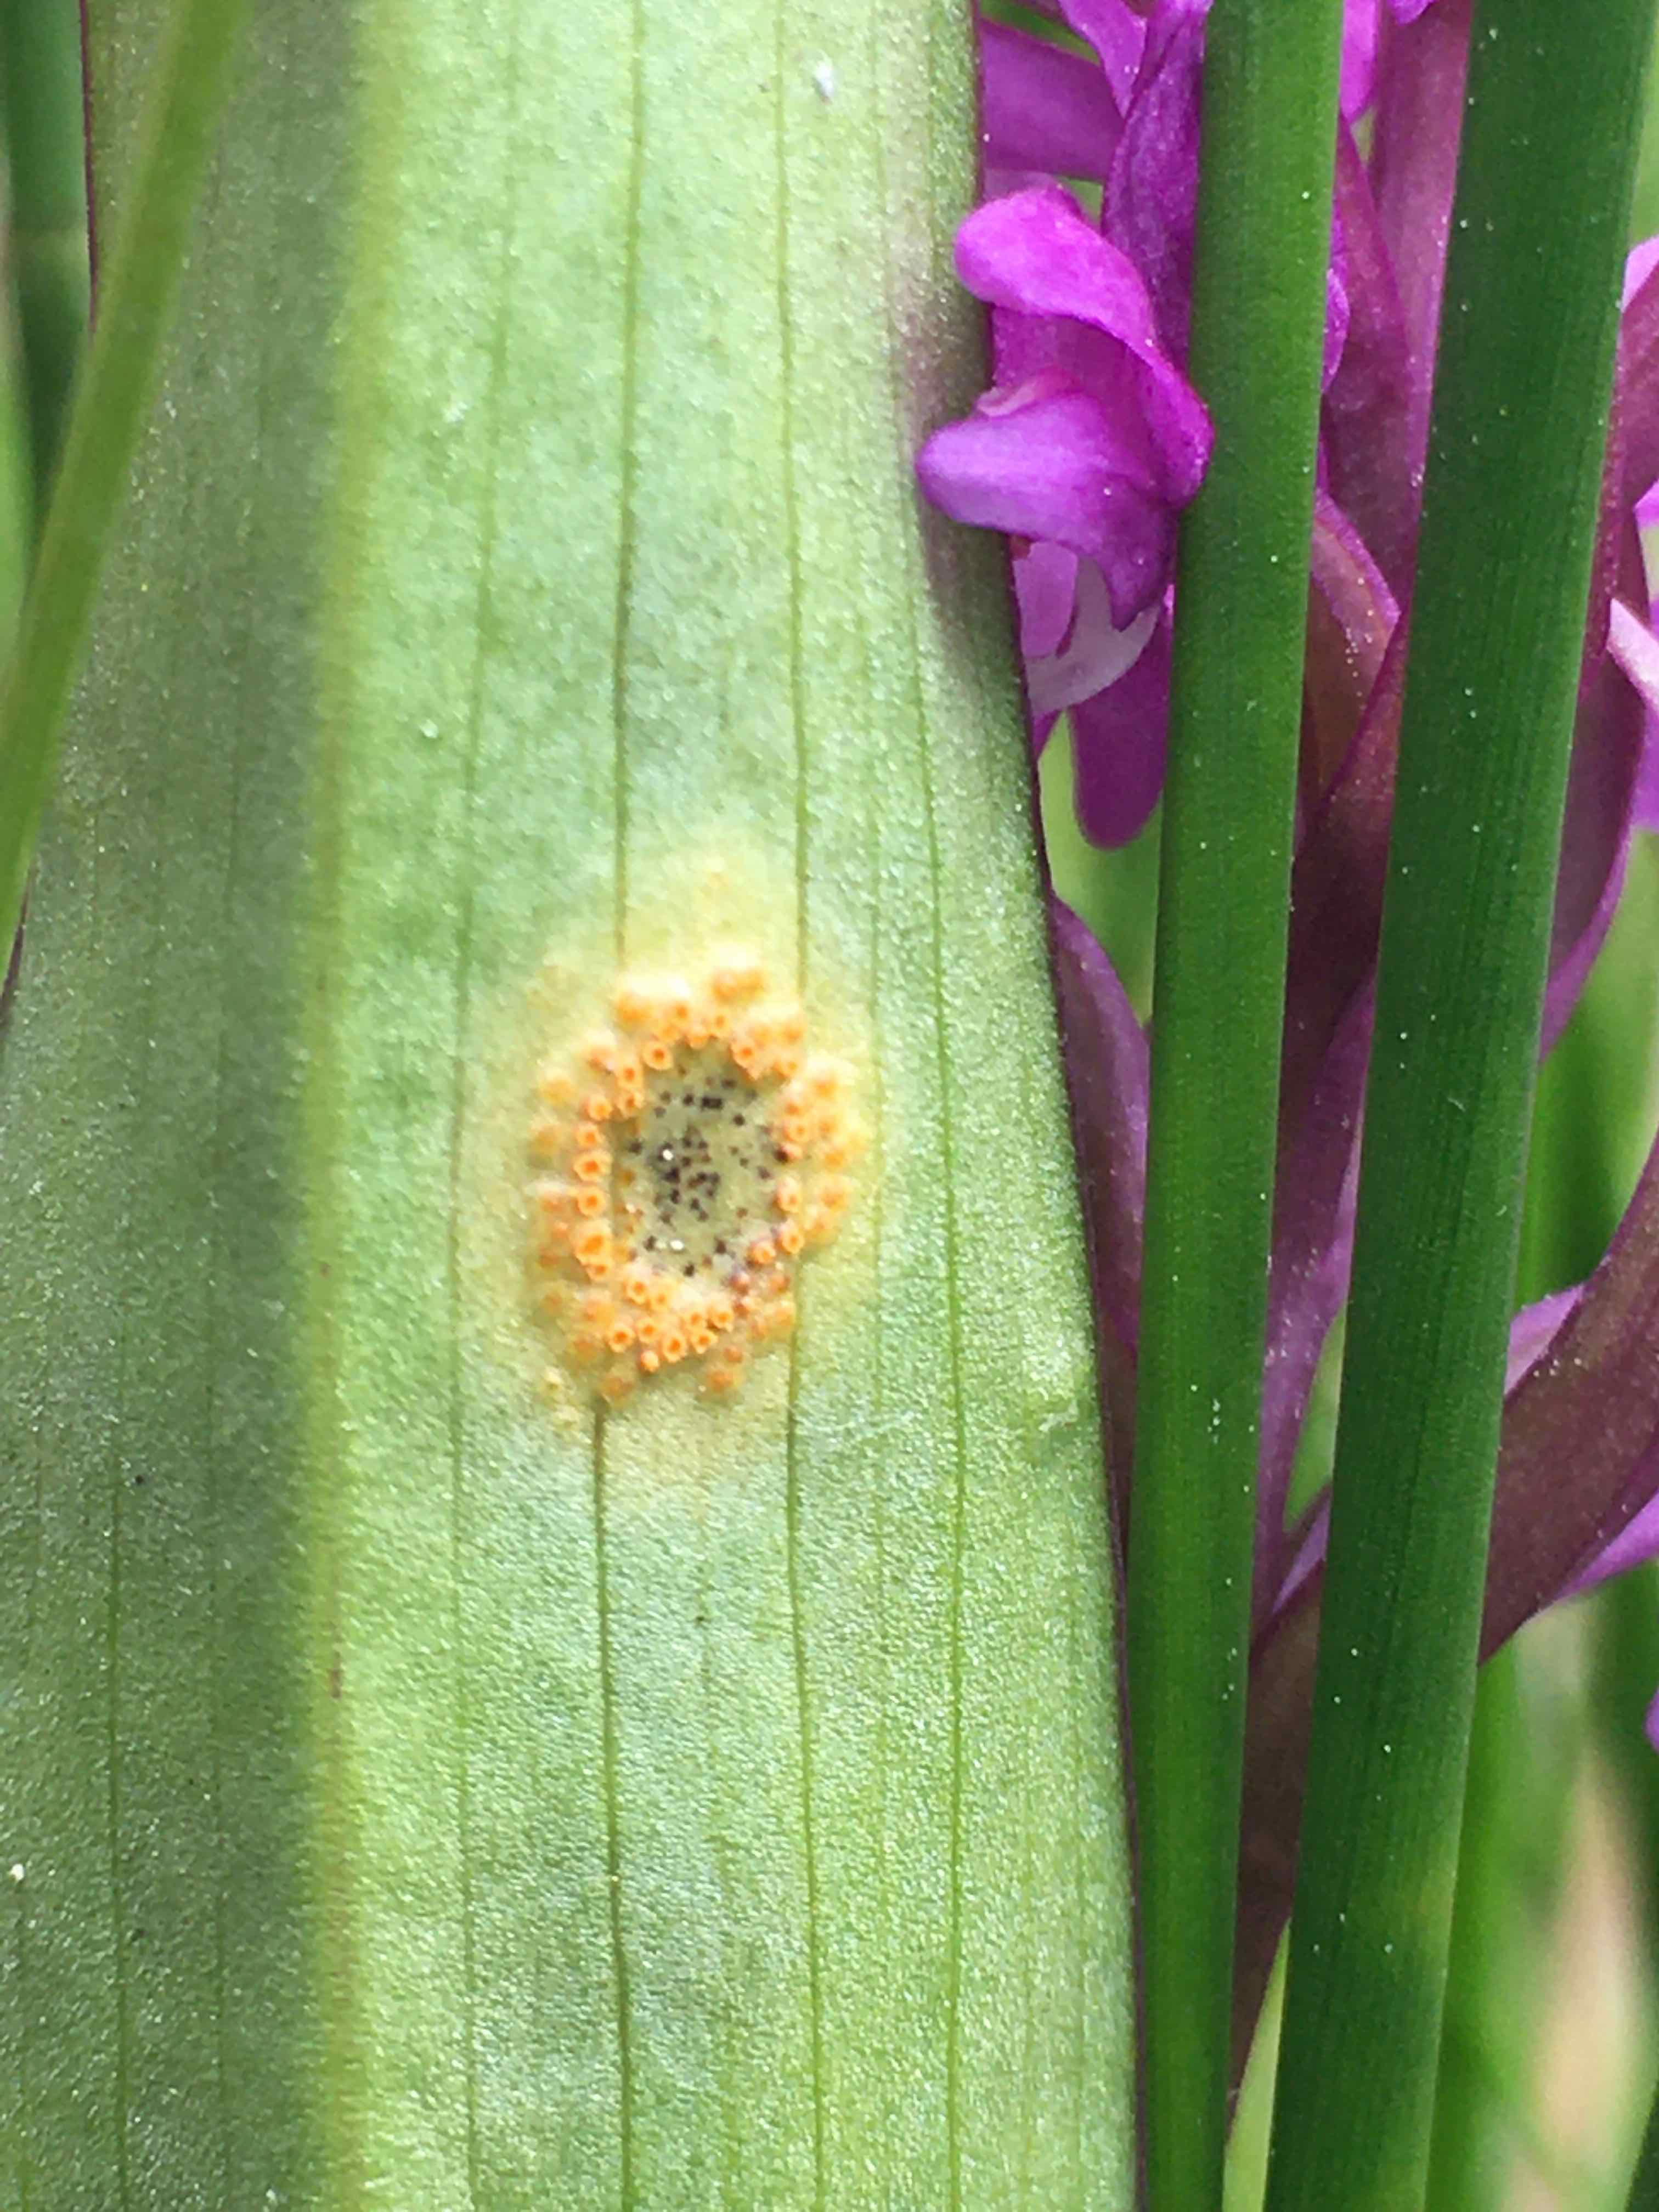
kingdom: Fungi
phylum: Basidiomycota
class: Pucciniomycetes
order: Pucciniales
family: Pucciniaceae
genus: Puccinia
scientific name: Puccinia sessilis
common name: Arum rust
